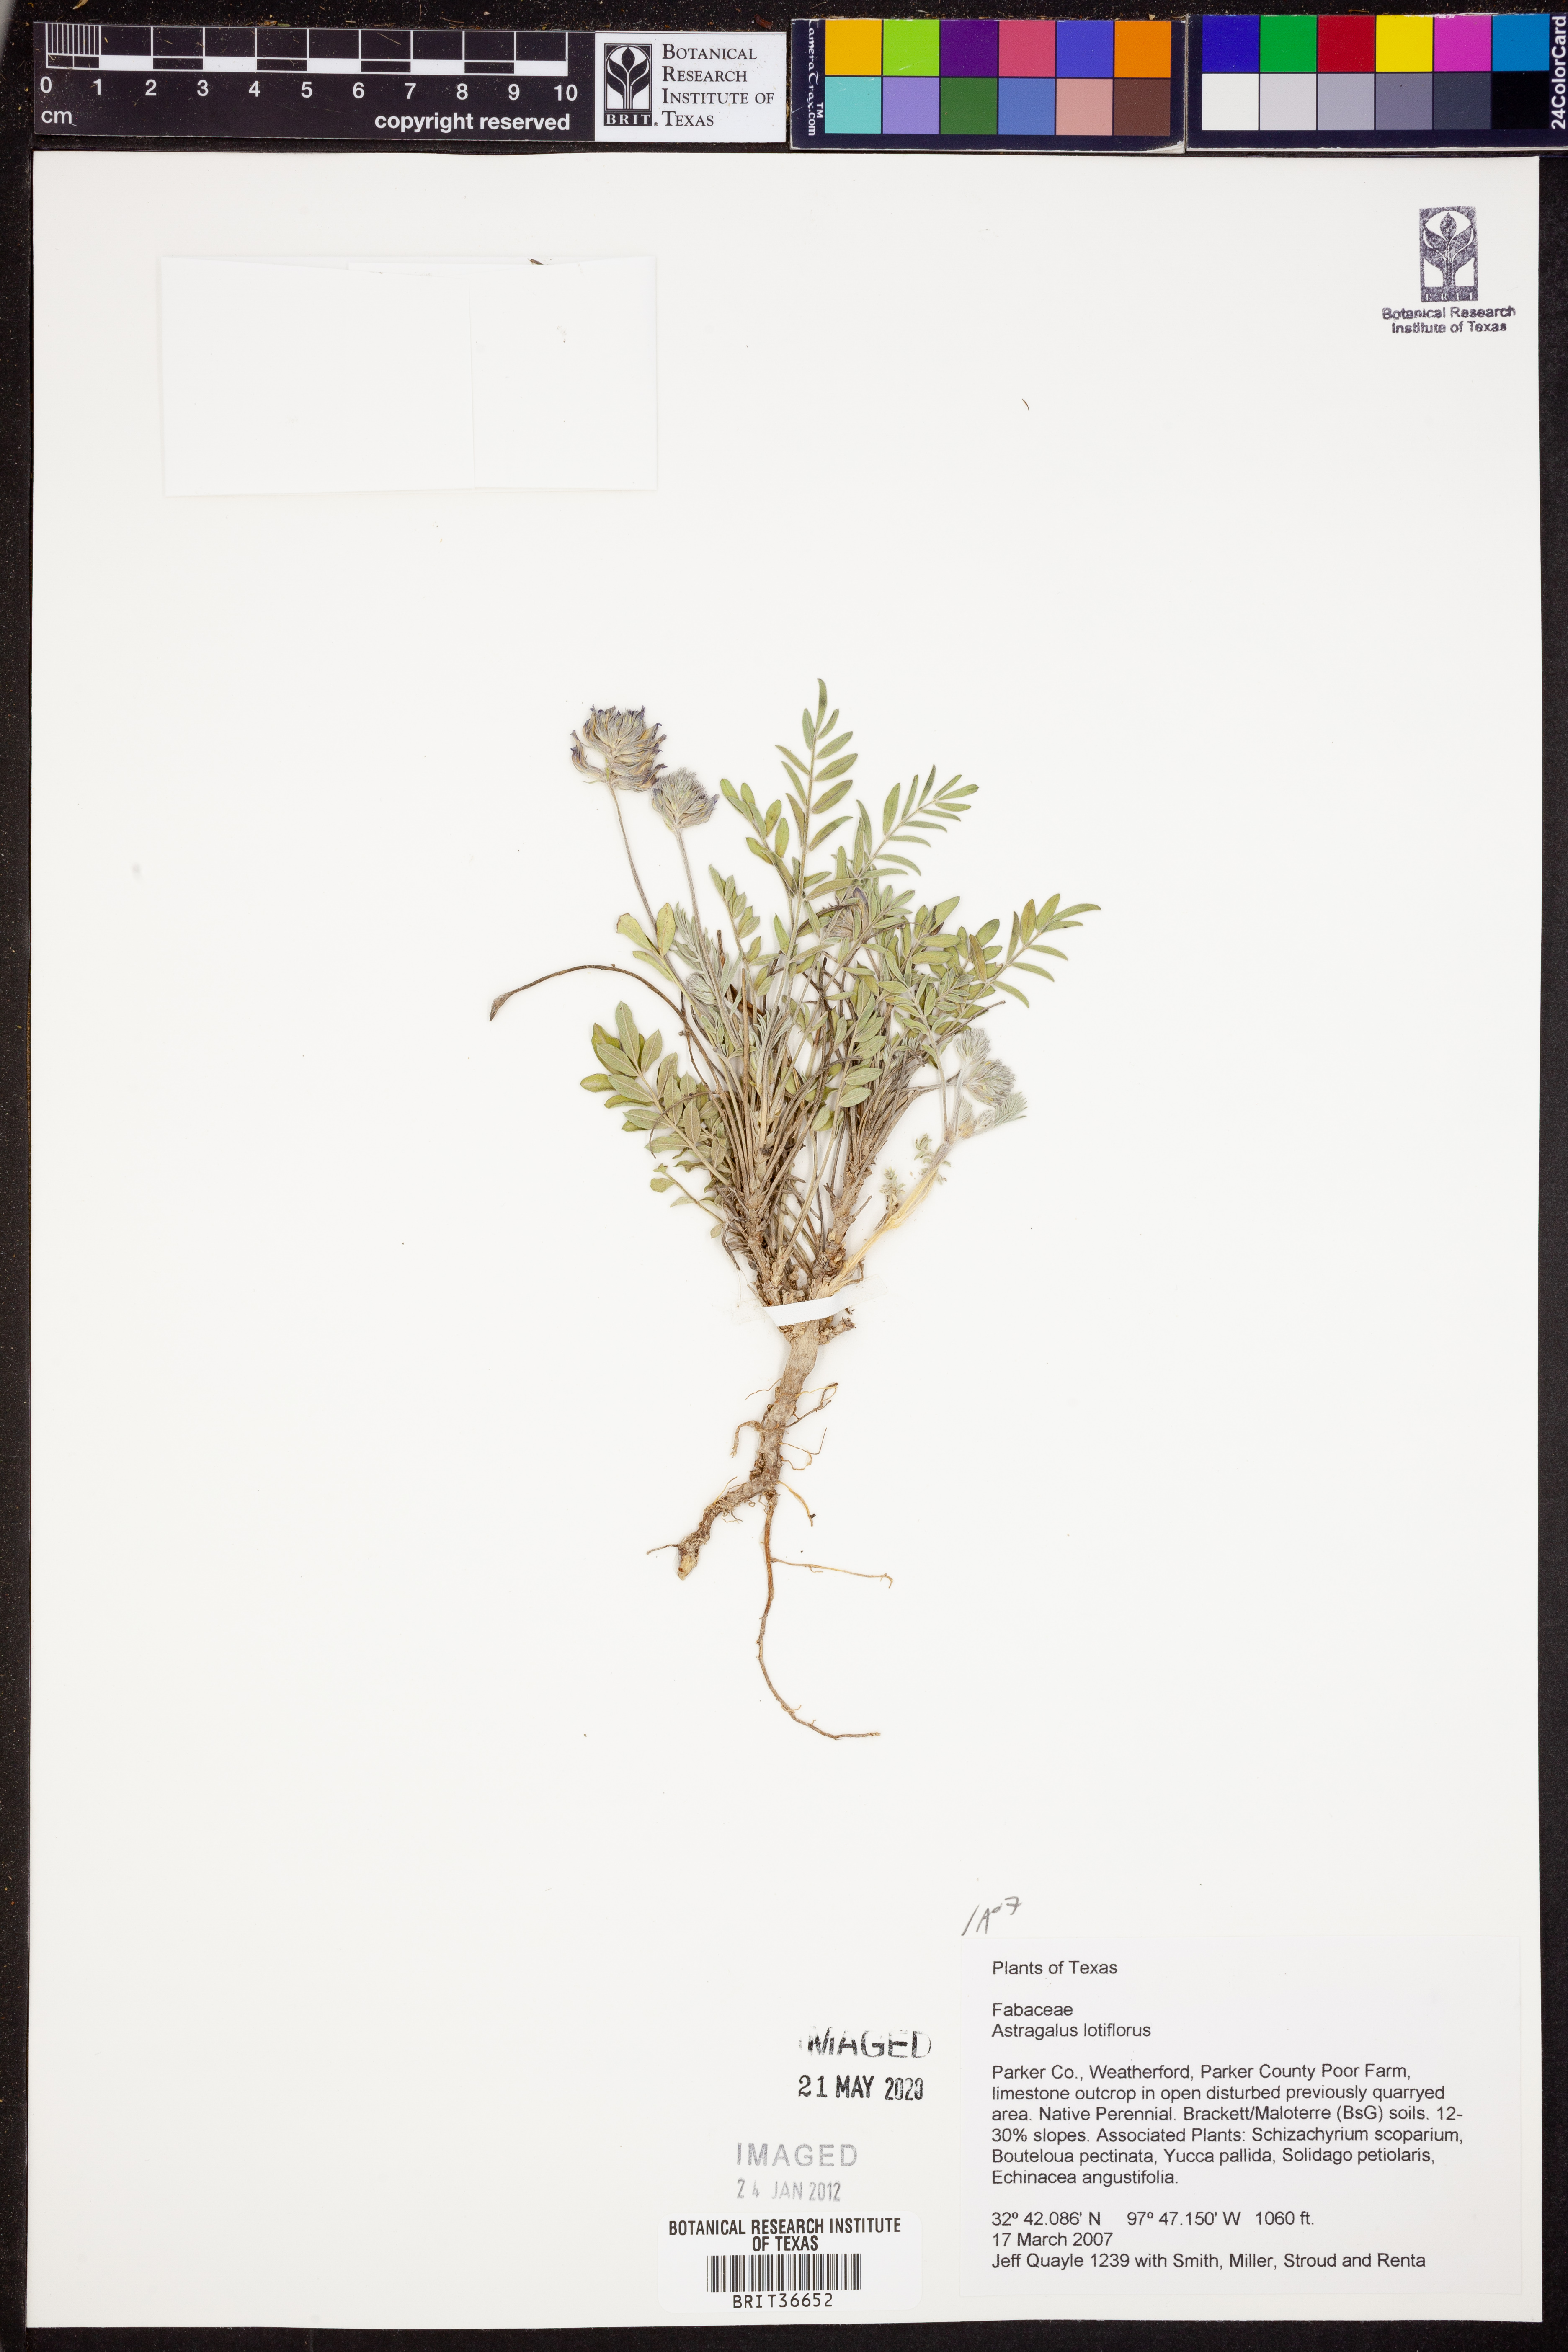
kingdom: Plantae
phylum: Tracheophyta
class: Magnoliopsida
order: Fabales
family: Fabaceae
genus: Astragalus
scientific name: Astragalus lotiflorus
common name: Lotus milk-vetch
